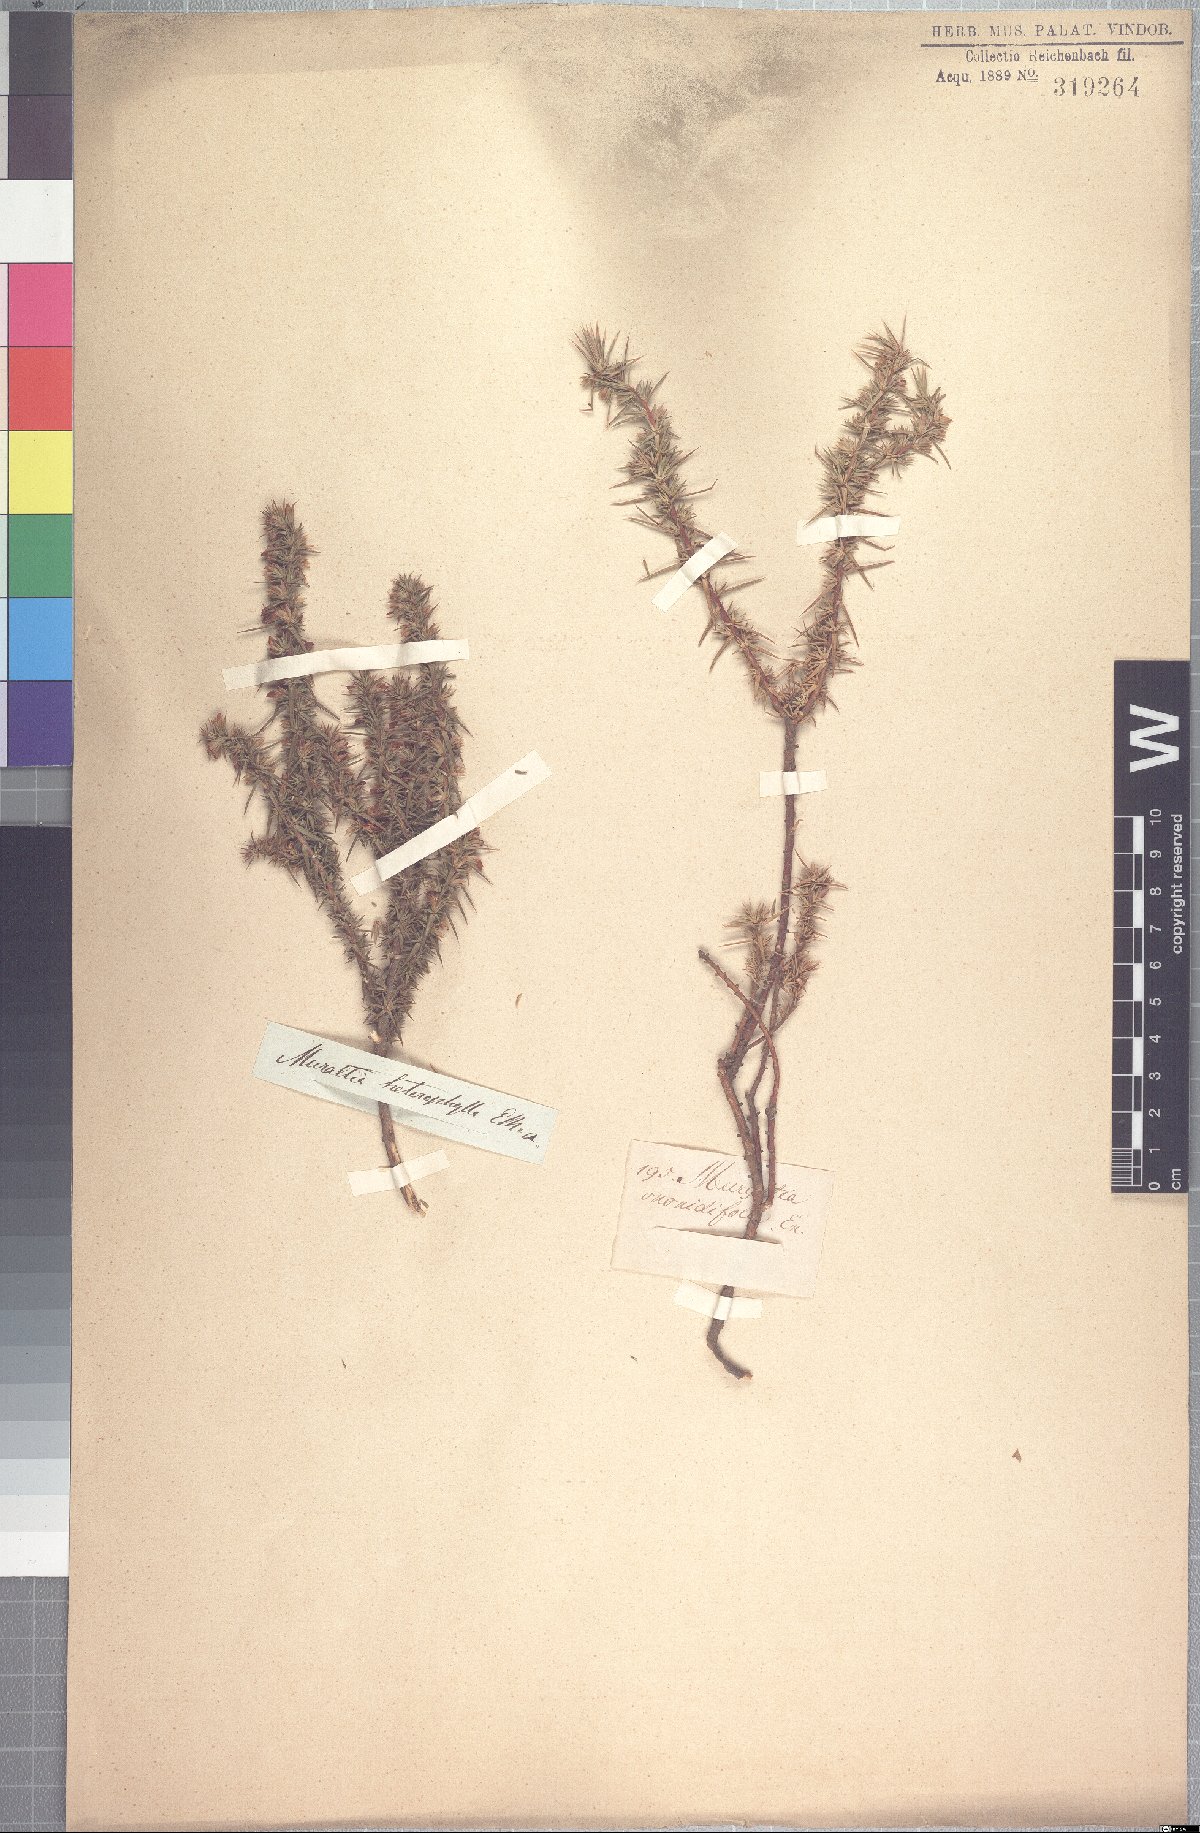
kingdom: Plantae
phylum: Tracheophyta
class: Magnoliopsida
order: Fabales
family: Polygalaceae
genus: Muraltia
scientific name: Muraltia ononidifolia
